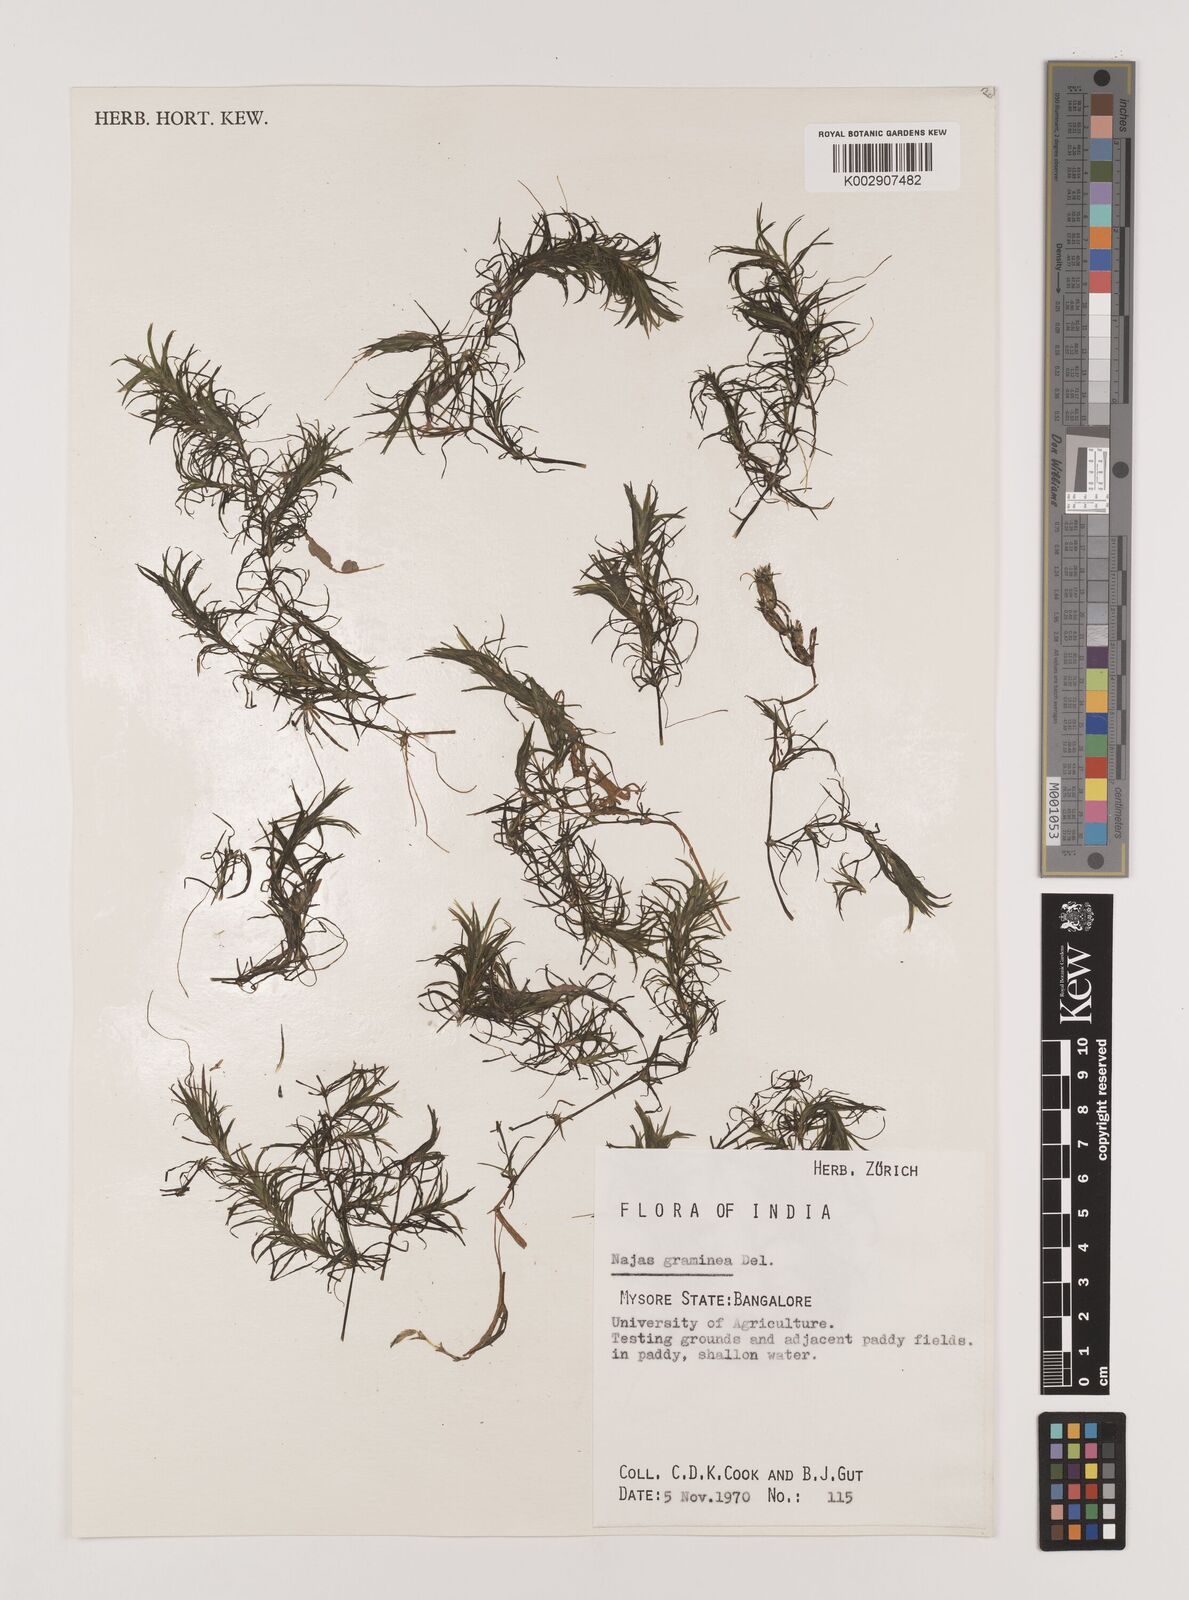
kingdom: Plantae
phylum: Tracheophyta
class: Liliopsida
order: Alismatales
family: Hydrocharitaceae
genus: Najas
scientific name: Najas graminea
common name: Ricefield waternymph
